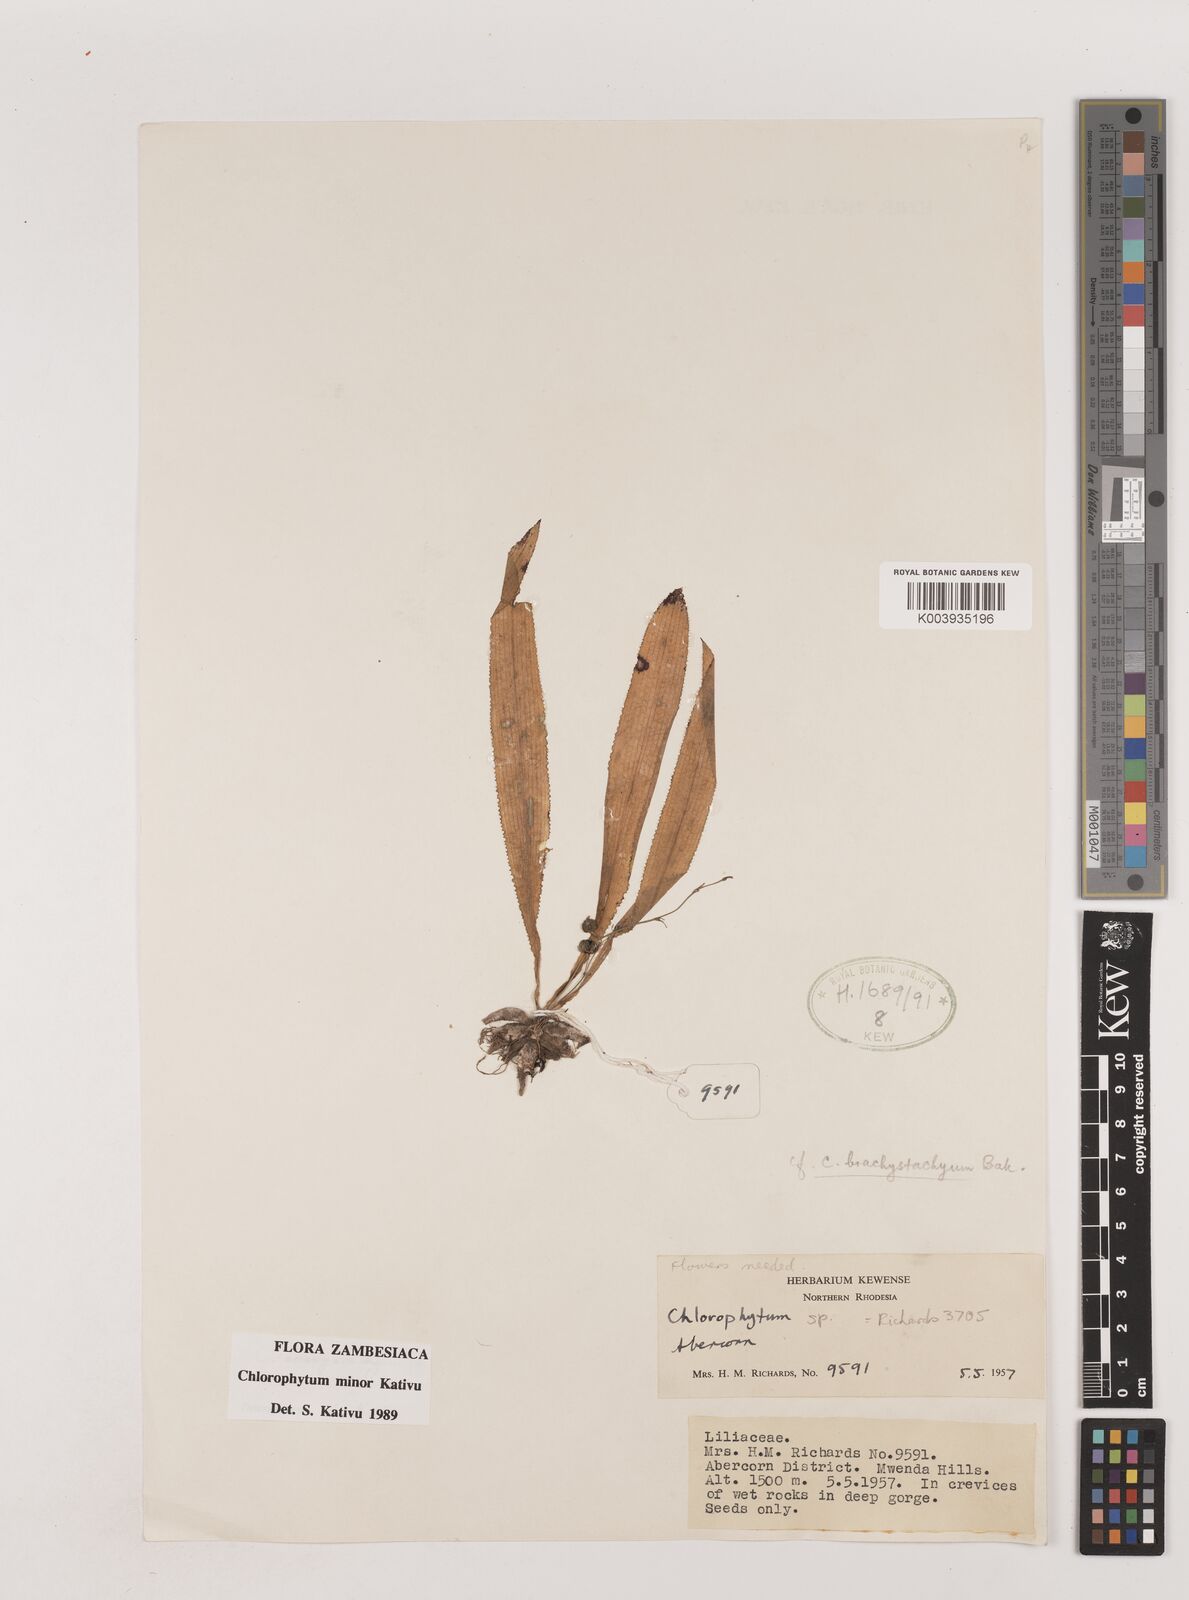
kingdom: Plantae
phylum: Tracheophyta
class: Liliopsida
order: Asparagales
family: Asparagaceae
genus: Chlorophytum
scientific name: Chlorophytum minor
